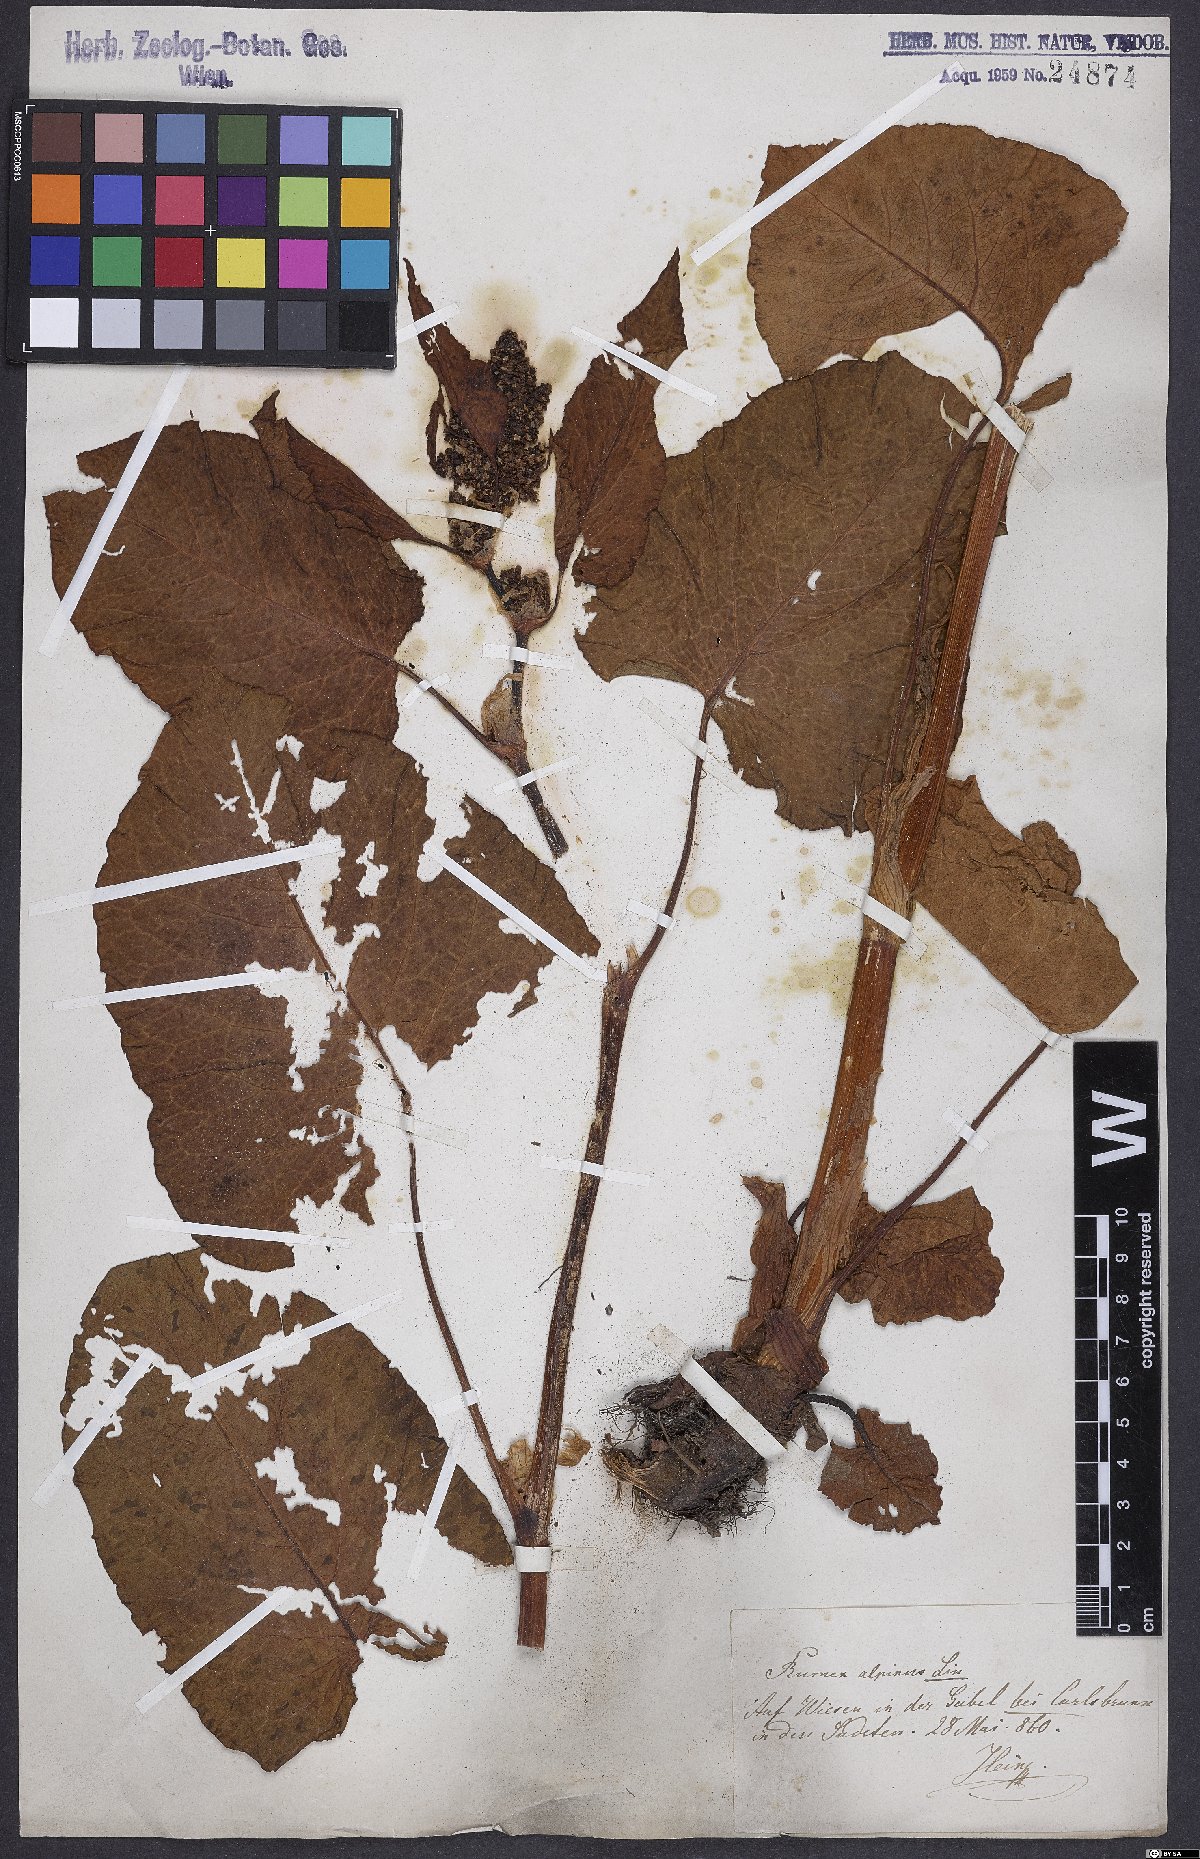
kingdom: Plantae
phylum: Tracheophyta
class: Magnoliopsida
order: Caryophyllales
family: Polygonaceae
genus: Rumex
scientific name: Rumex alpinus
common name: Alpine dock
